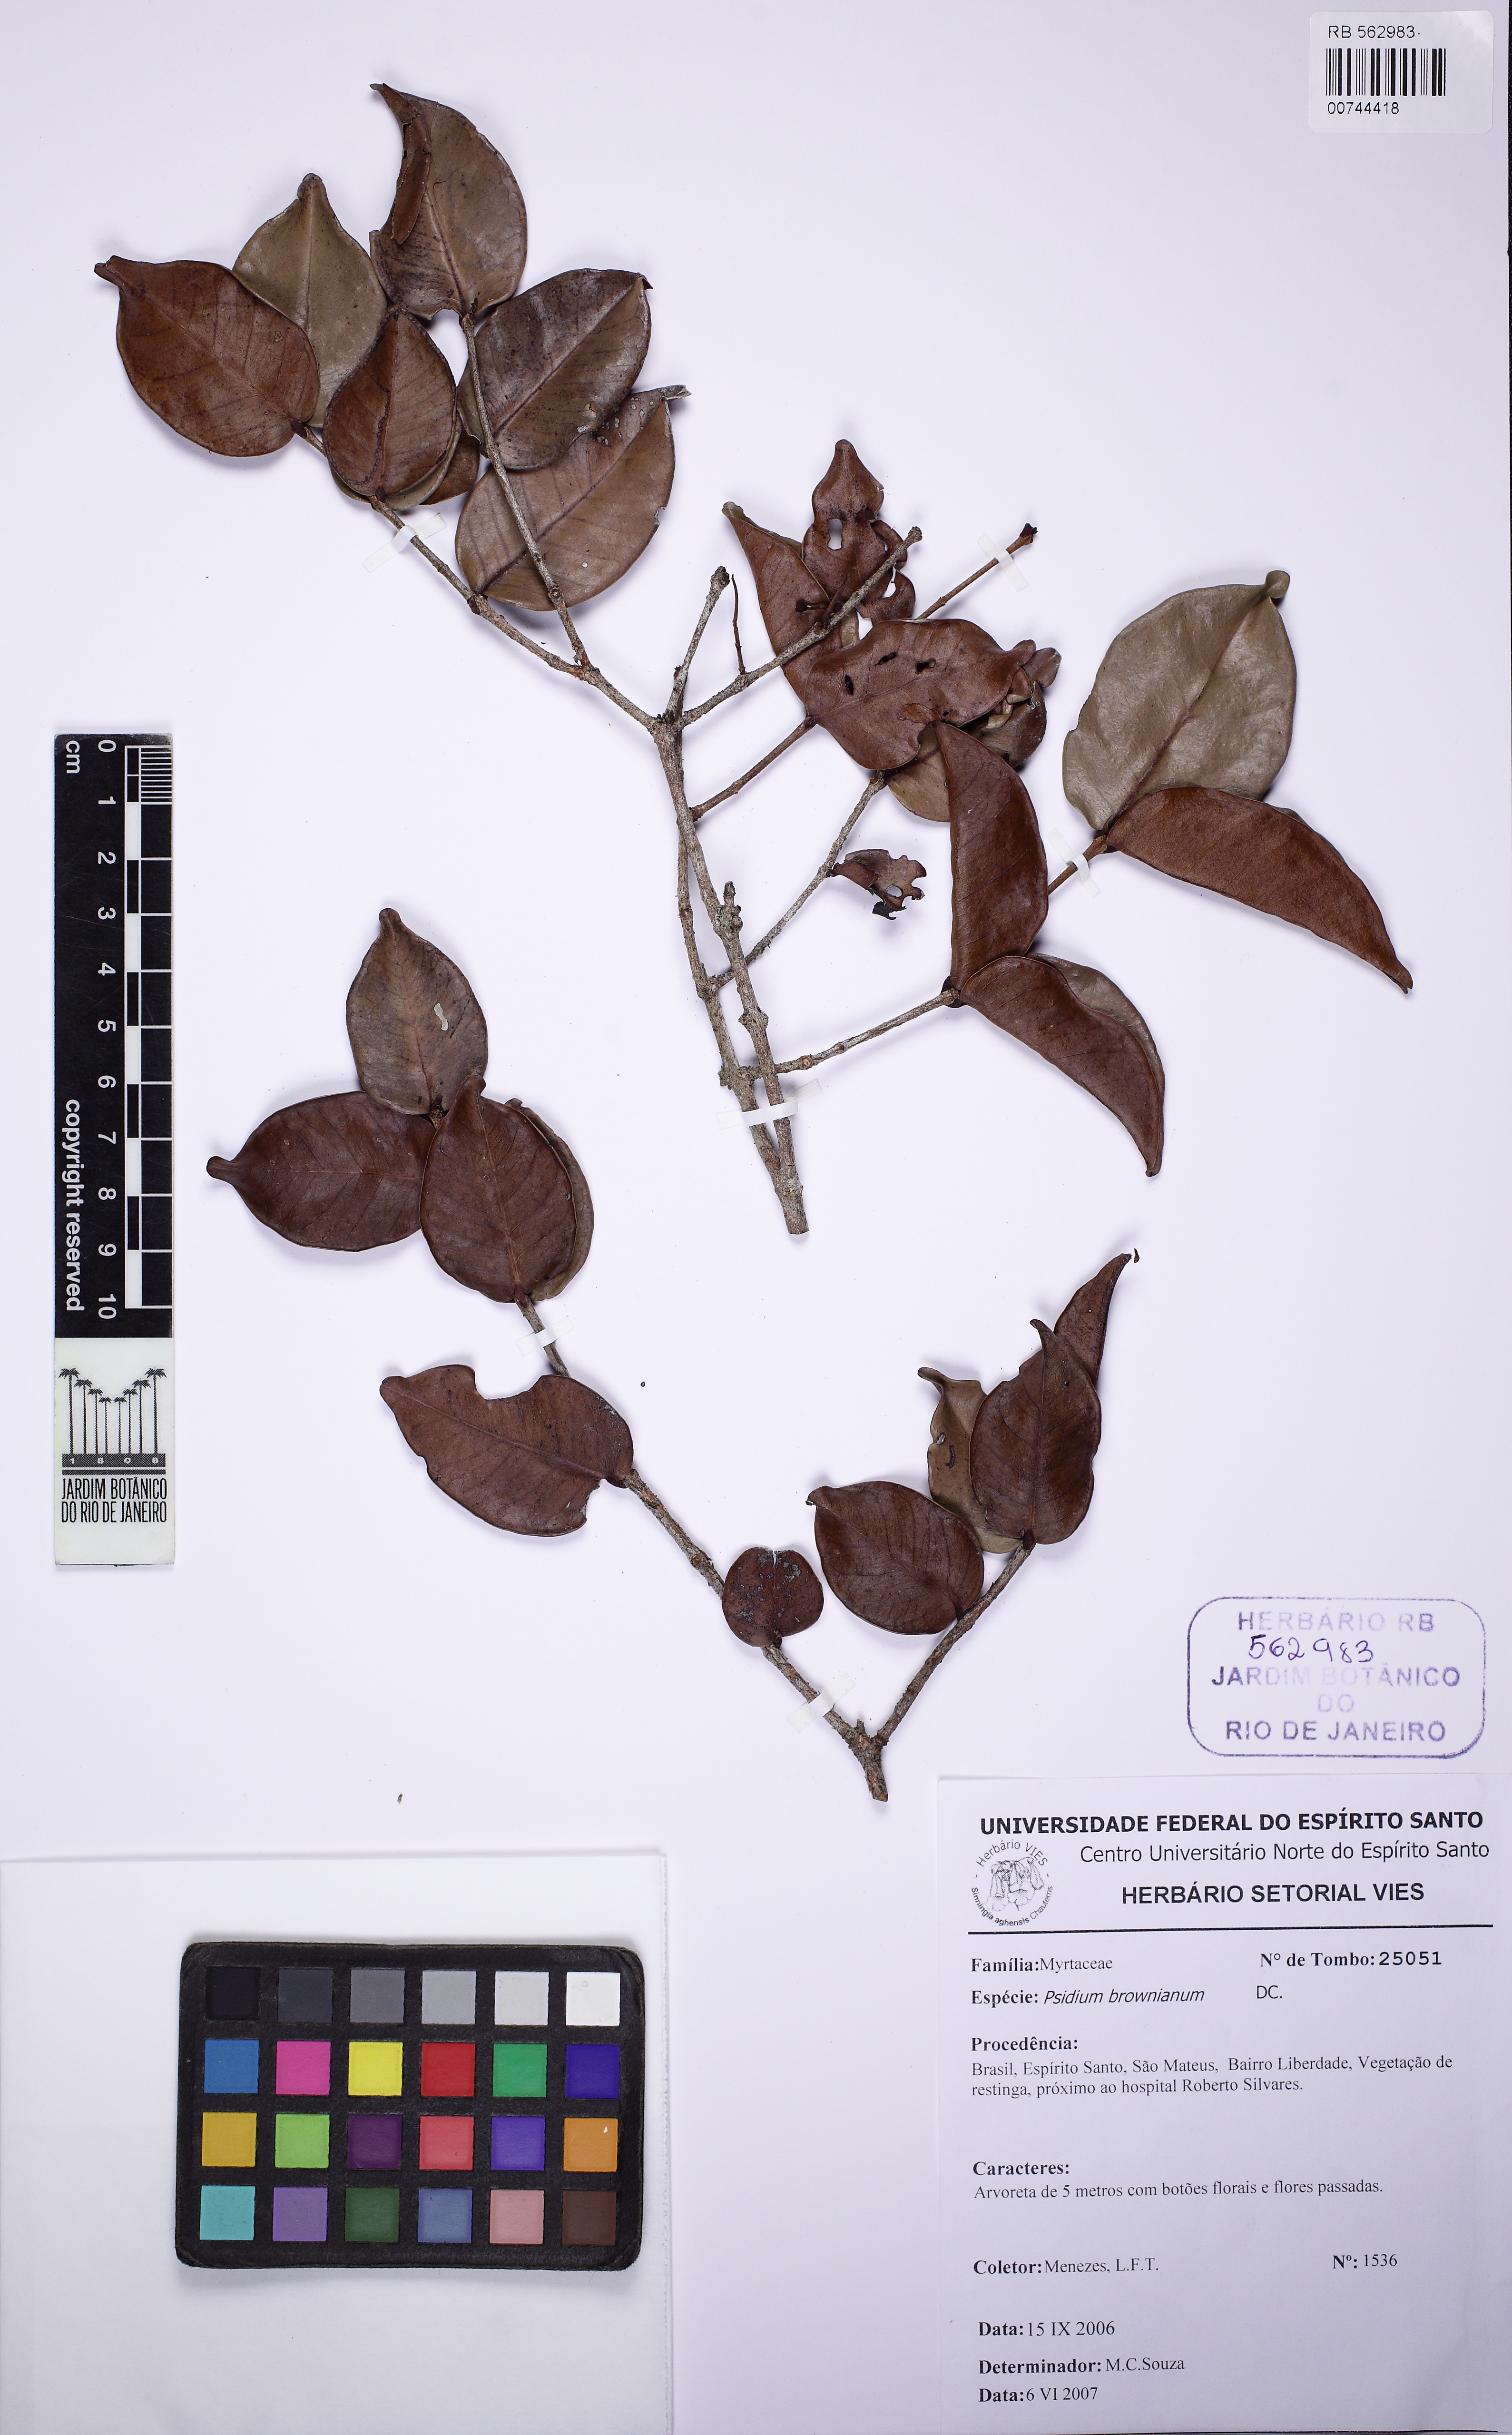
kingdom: Plantae
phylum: Tracheophyta
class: Magnoliopsida
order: Myrtales
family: Myrtaceae
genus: Psidium
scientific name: Psidium brownianum
